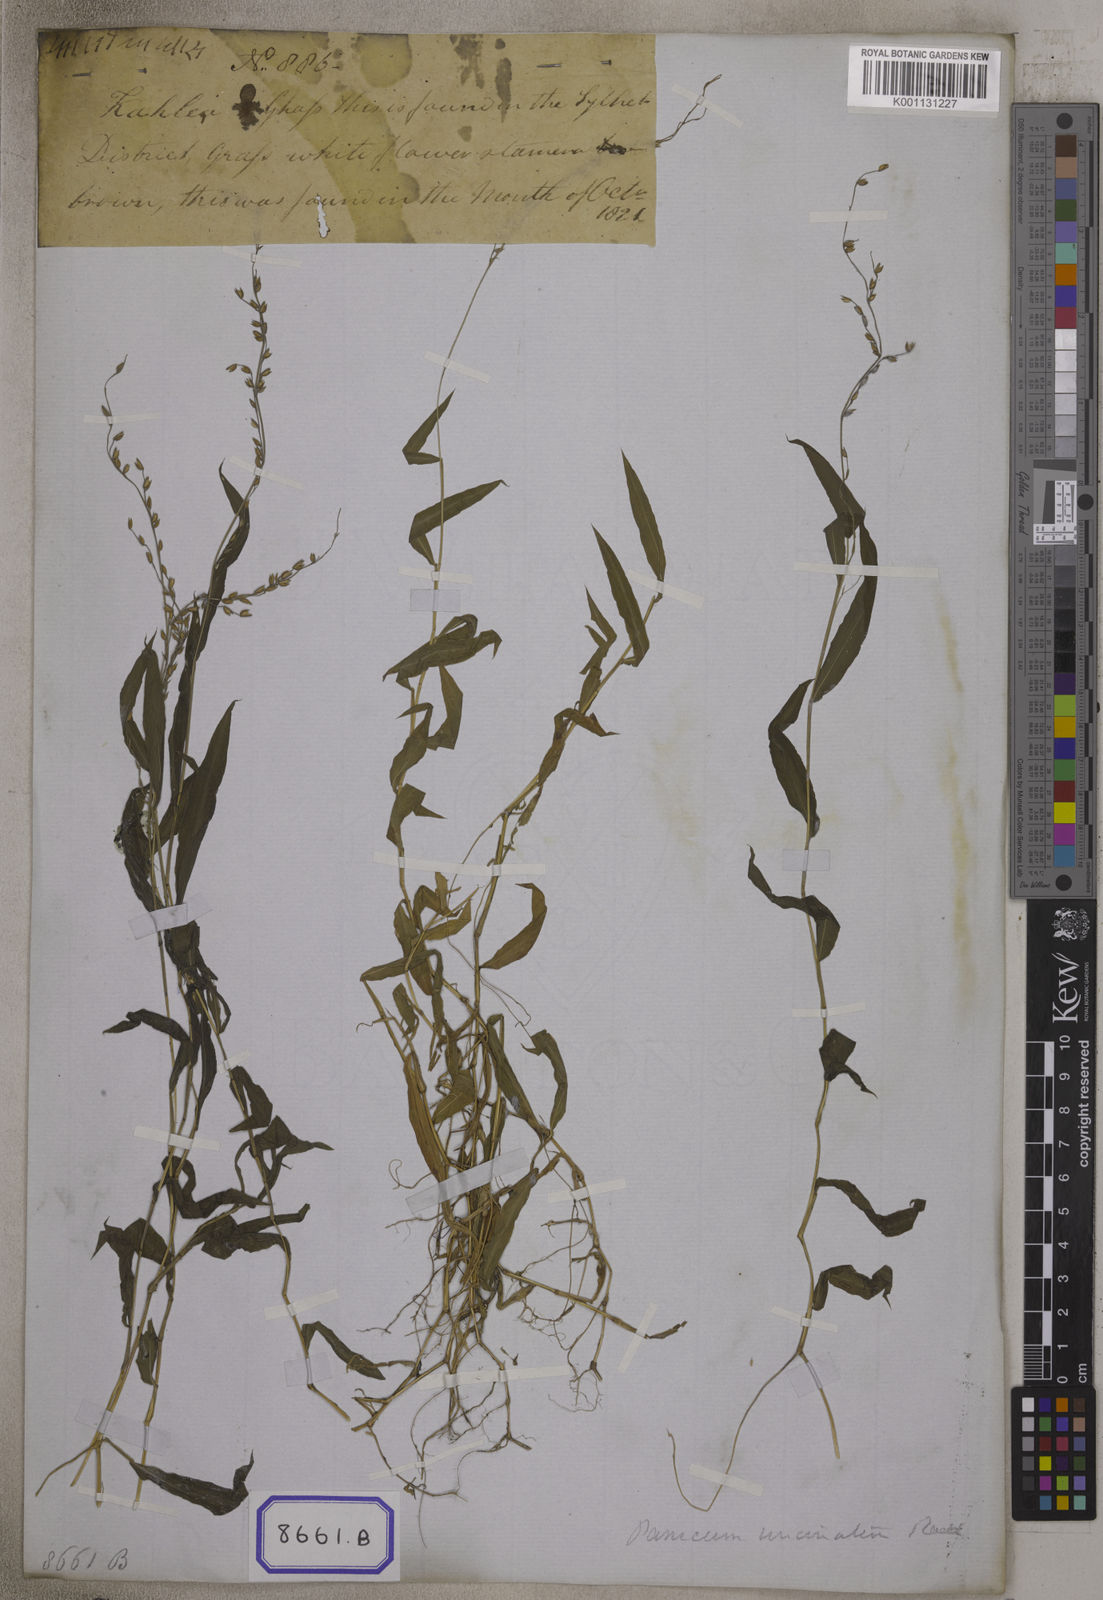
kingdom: Plantae
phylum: Tracheophyta
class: Liliopsida
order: Poales
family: Poaceae
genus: Echinolaena
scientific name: Echinolaena
